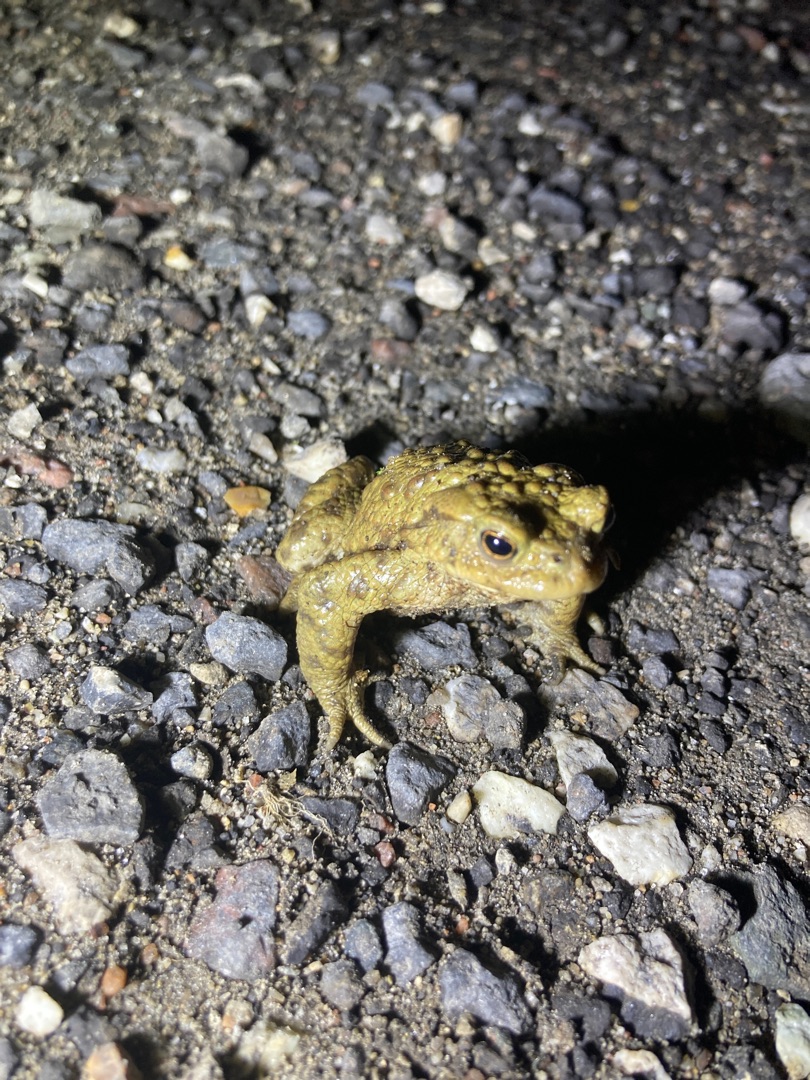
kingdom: Animalia
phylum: Chordata
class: Amphibia
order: Anura
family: Bufonidae
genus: Bufo
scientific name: Bufo bufo
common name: Skrubtudse
